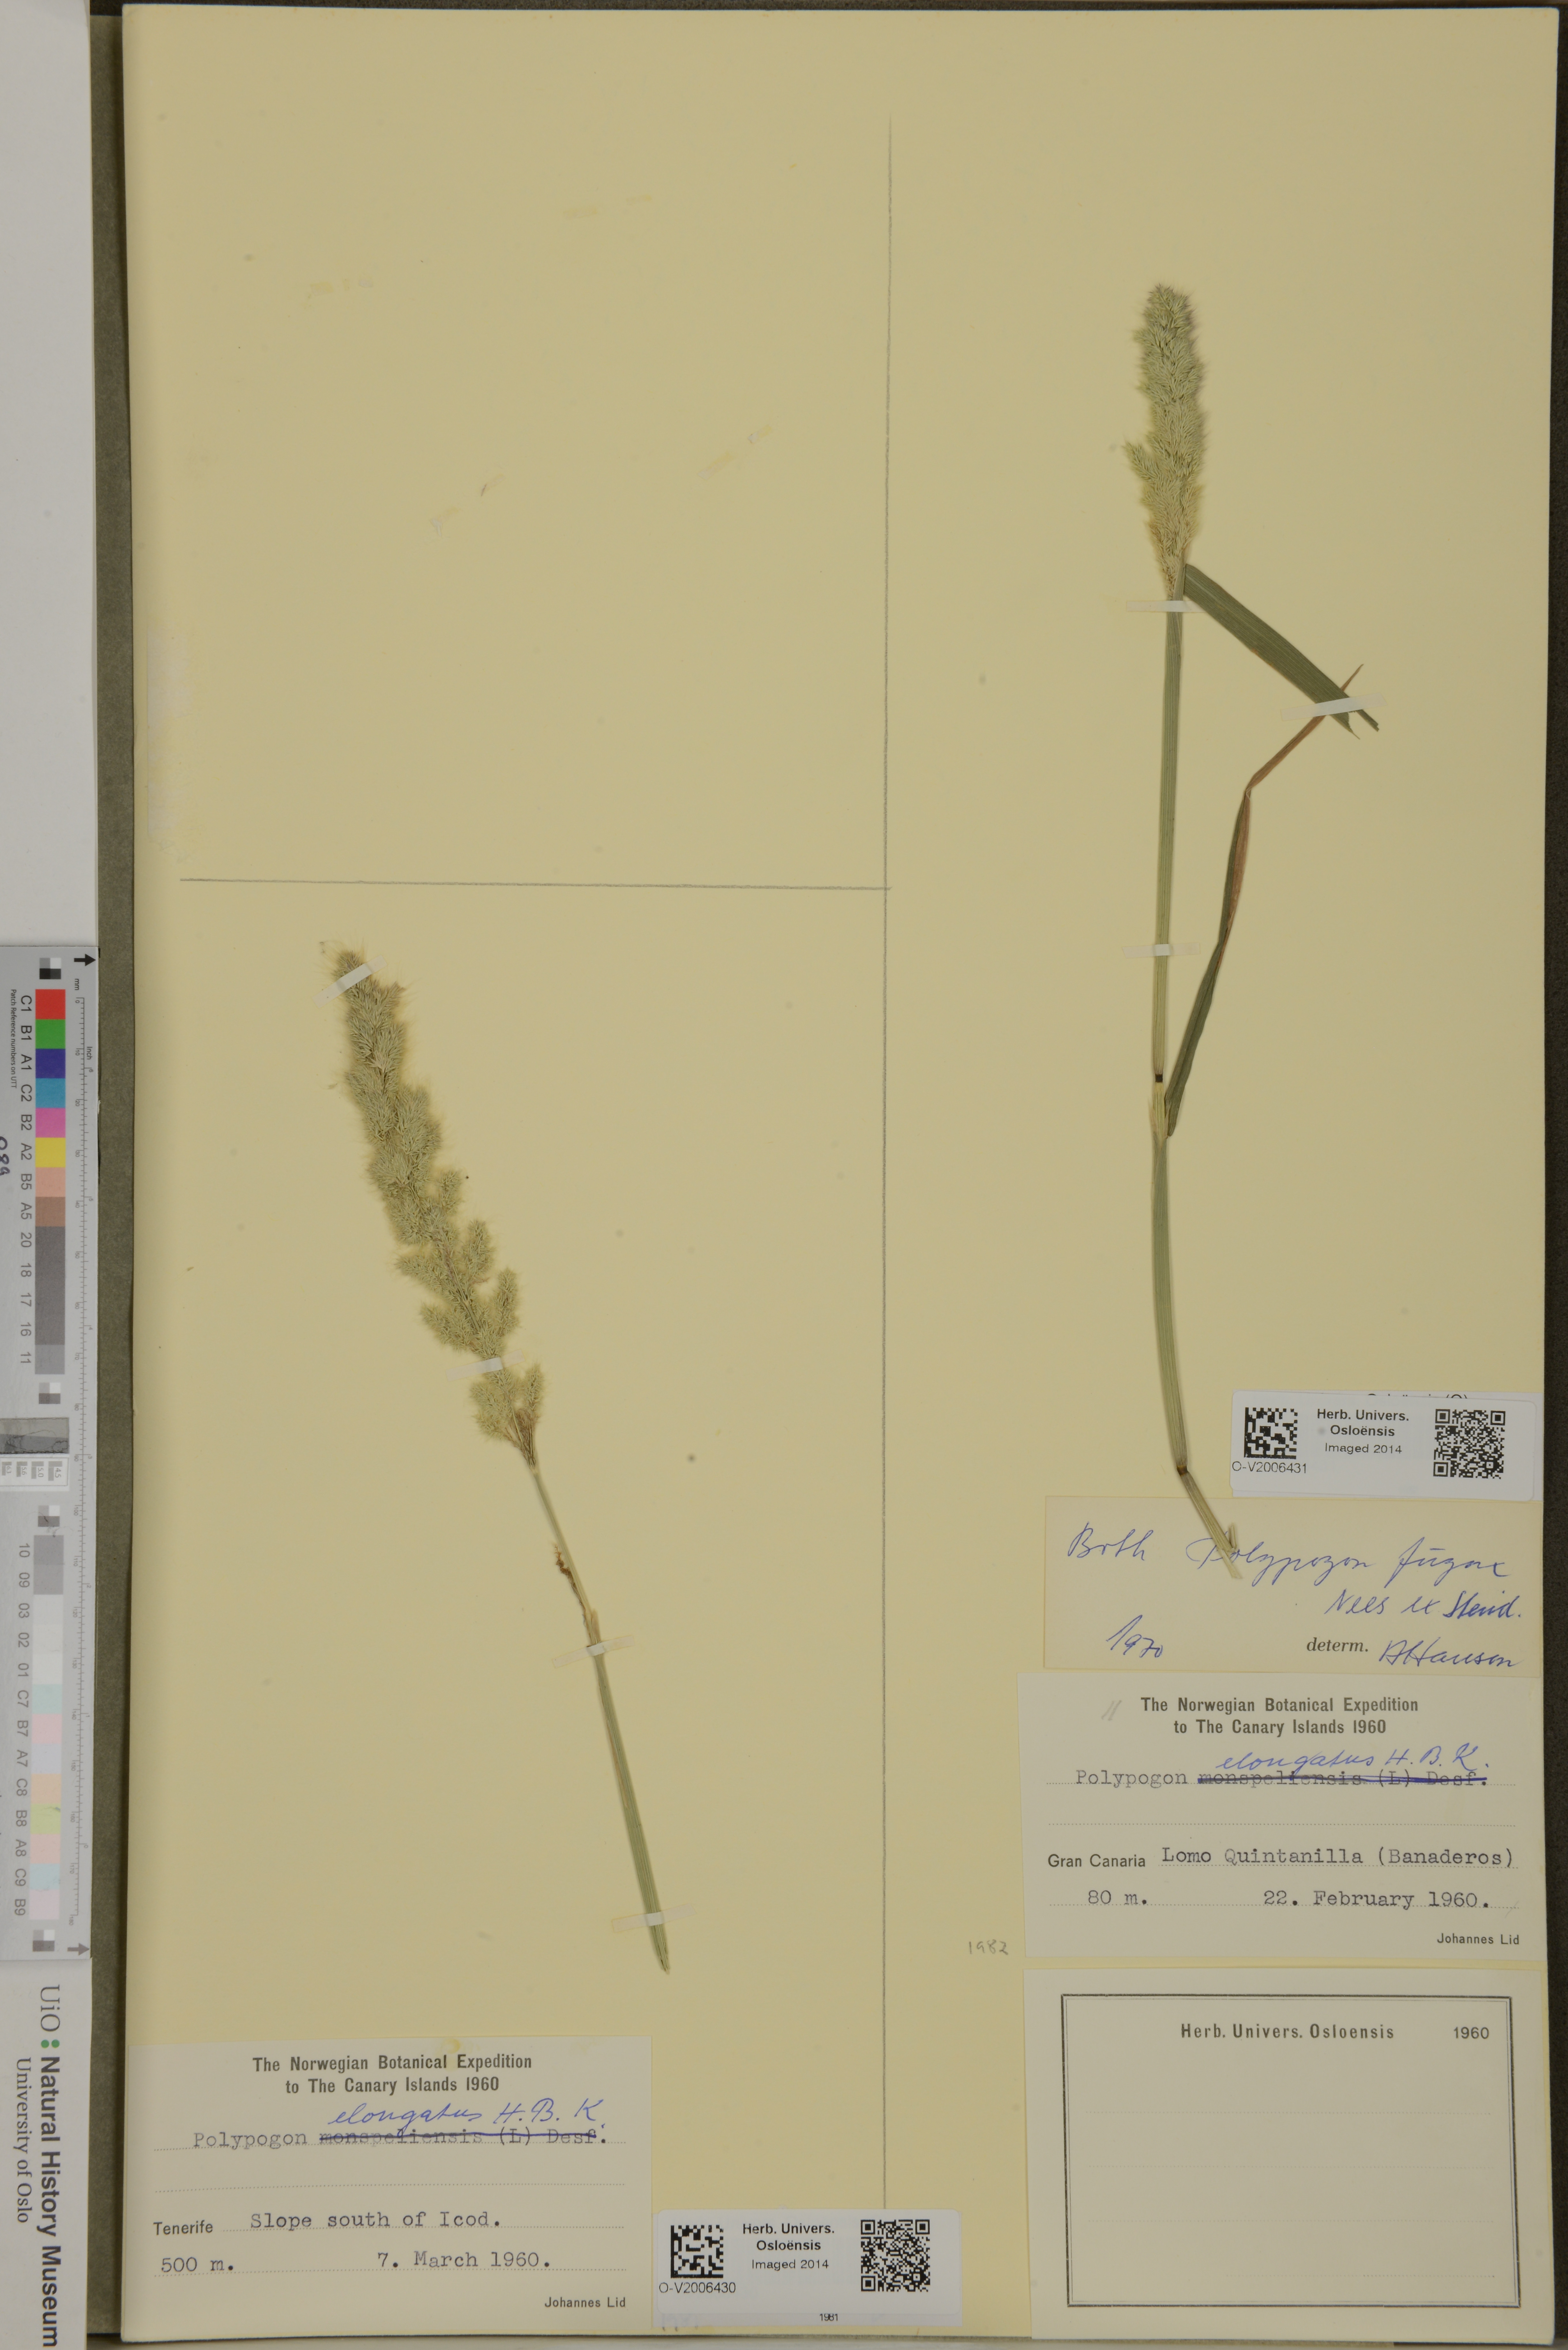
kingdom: Plantae
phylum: Tracheophyta
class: Liliopsida
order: Poales
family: Poaceae
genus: Polypogon
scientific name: Polypogon fugax
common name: Asia minor bluegrass
